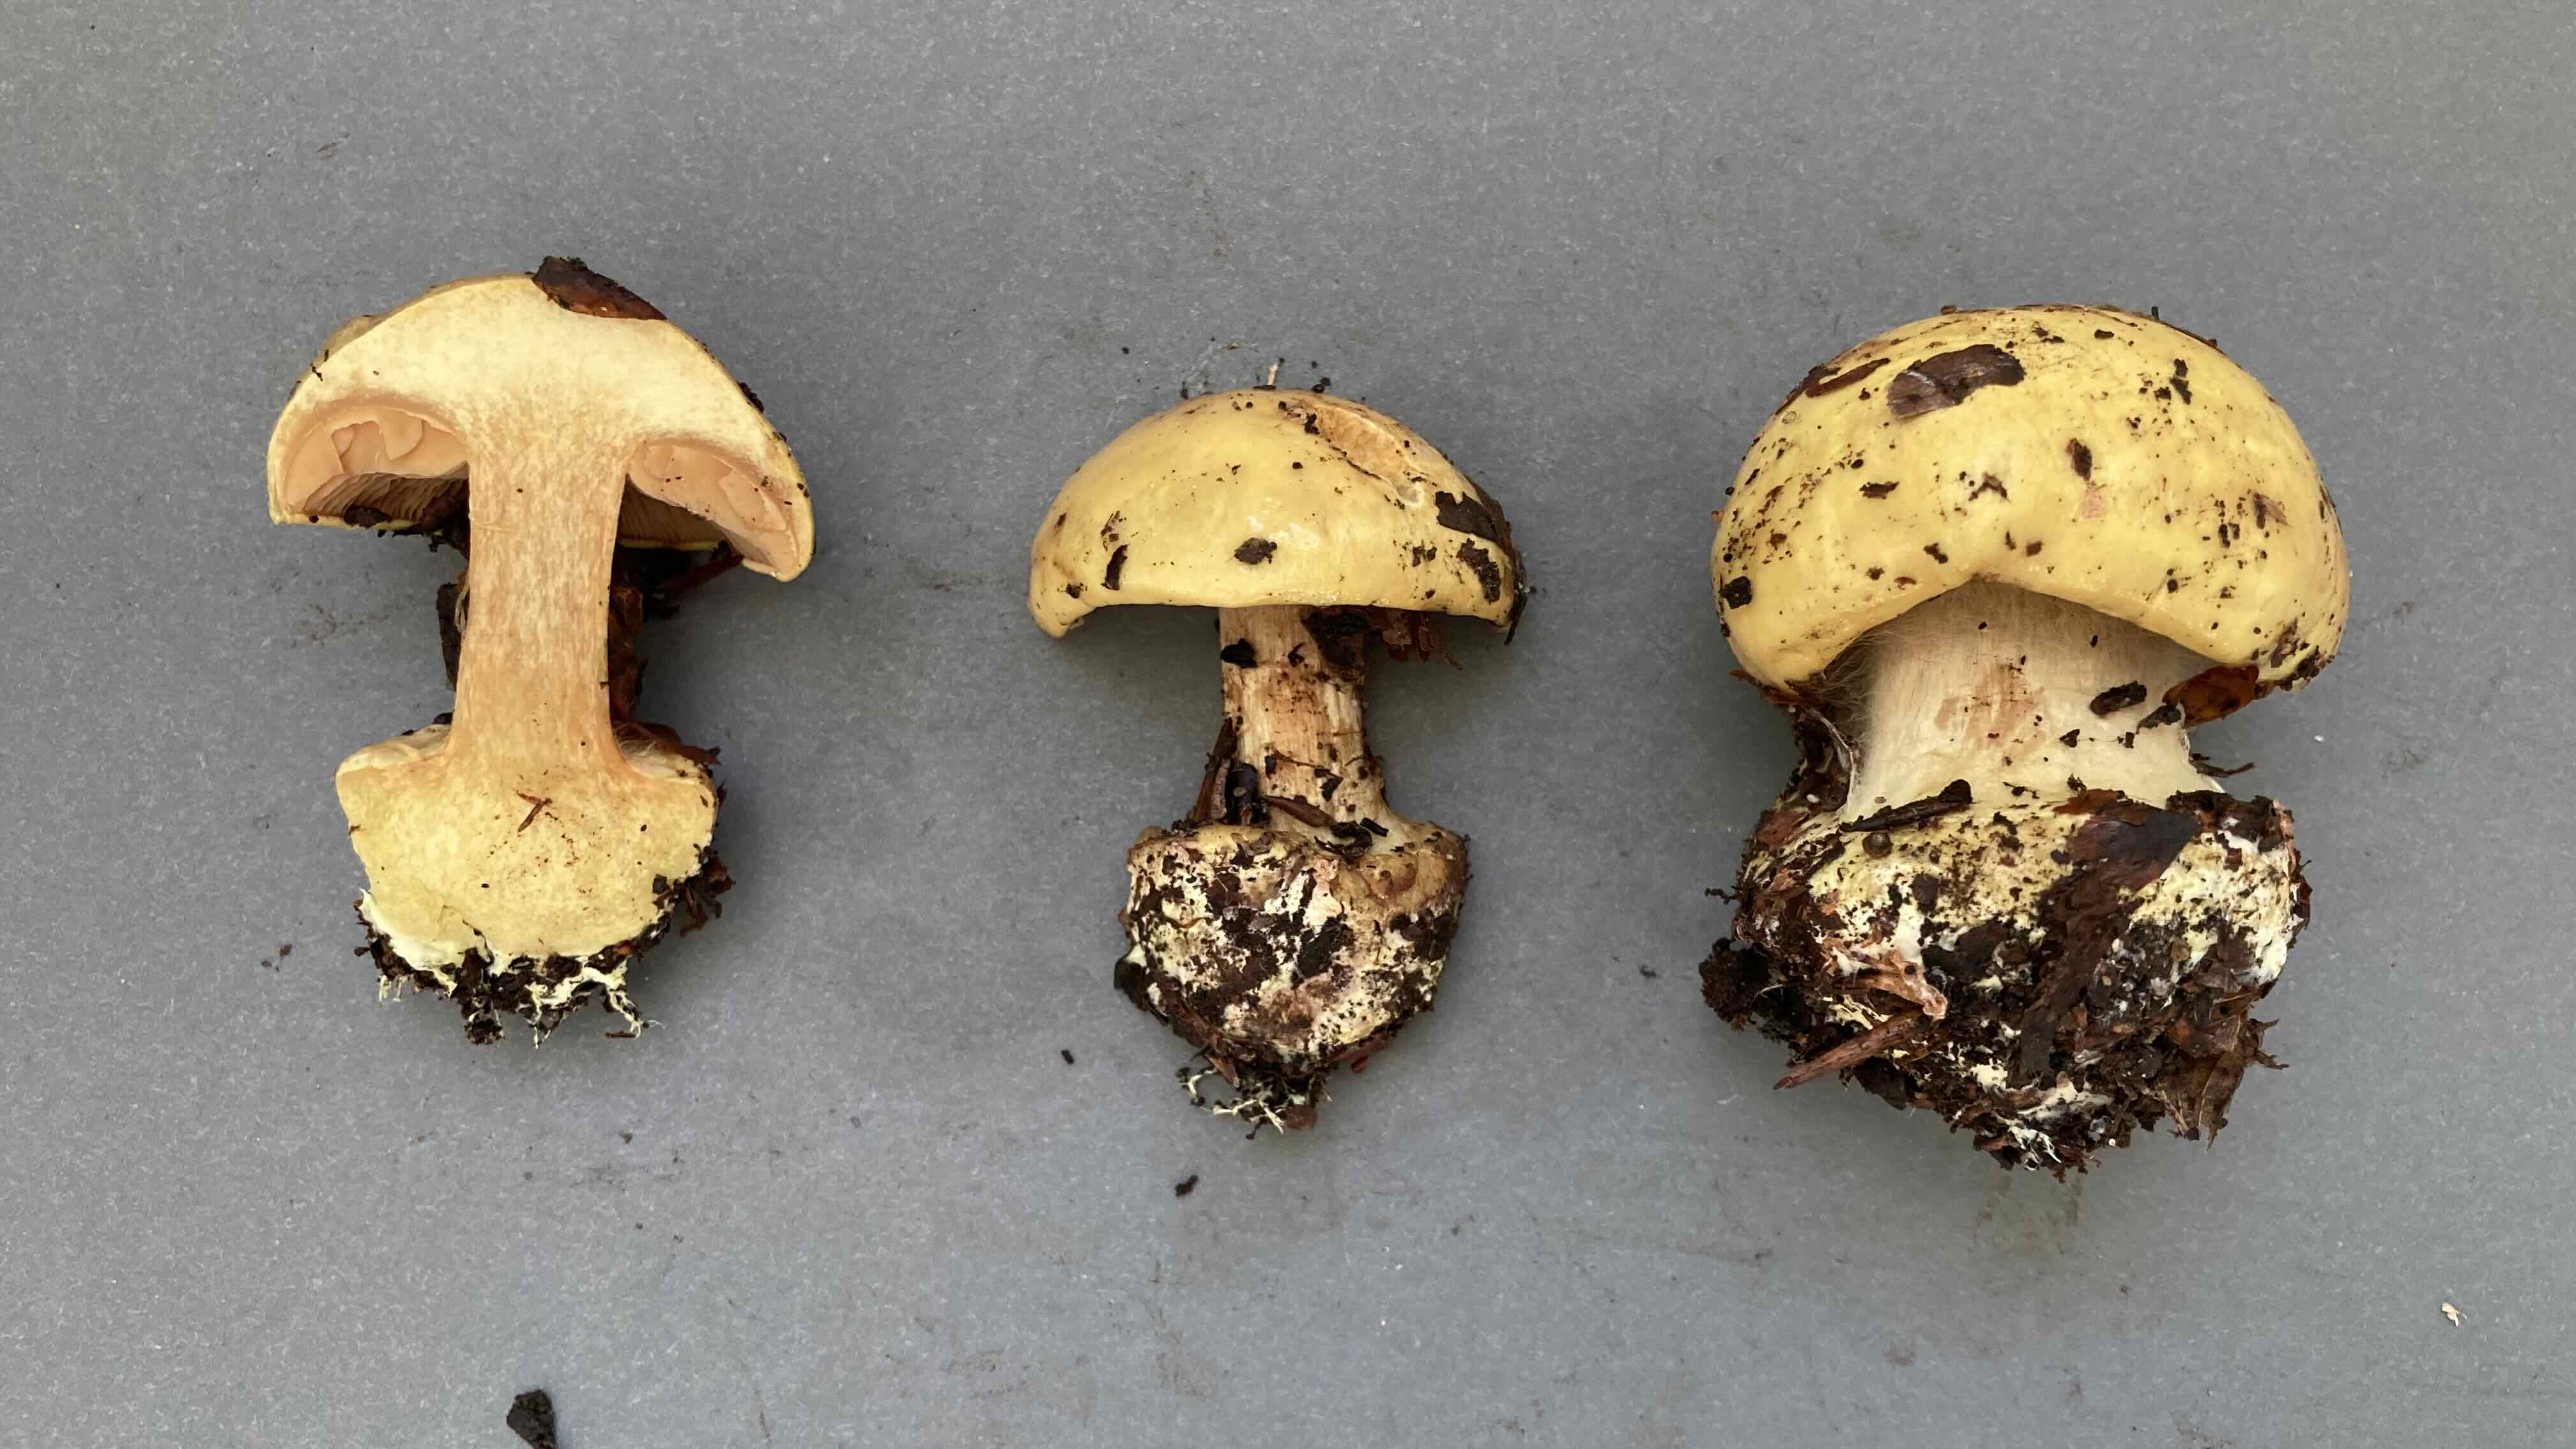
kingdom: Fungi
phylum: Basidiomycota
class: Agaricomycetes
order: Agaricales
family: Cortinariaceae
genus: Calonarius
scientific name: Calonarius fulvocitrinus
